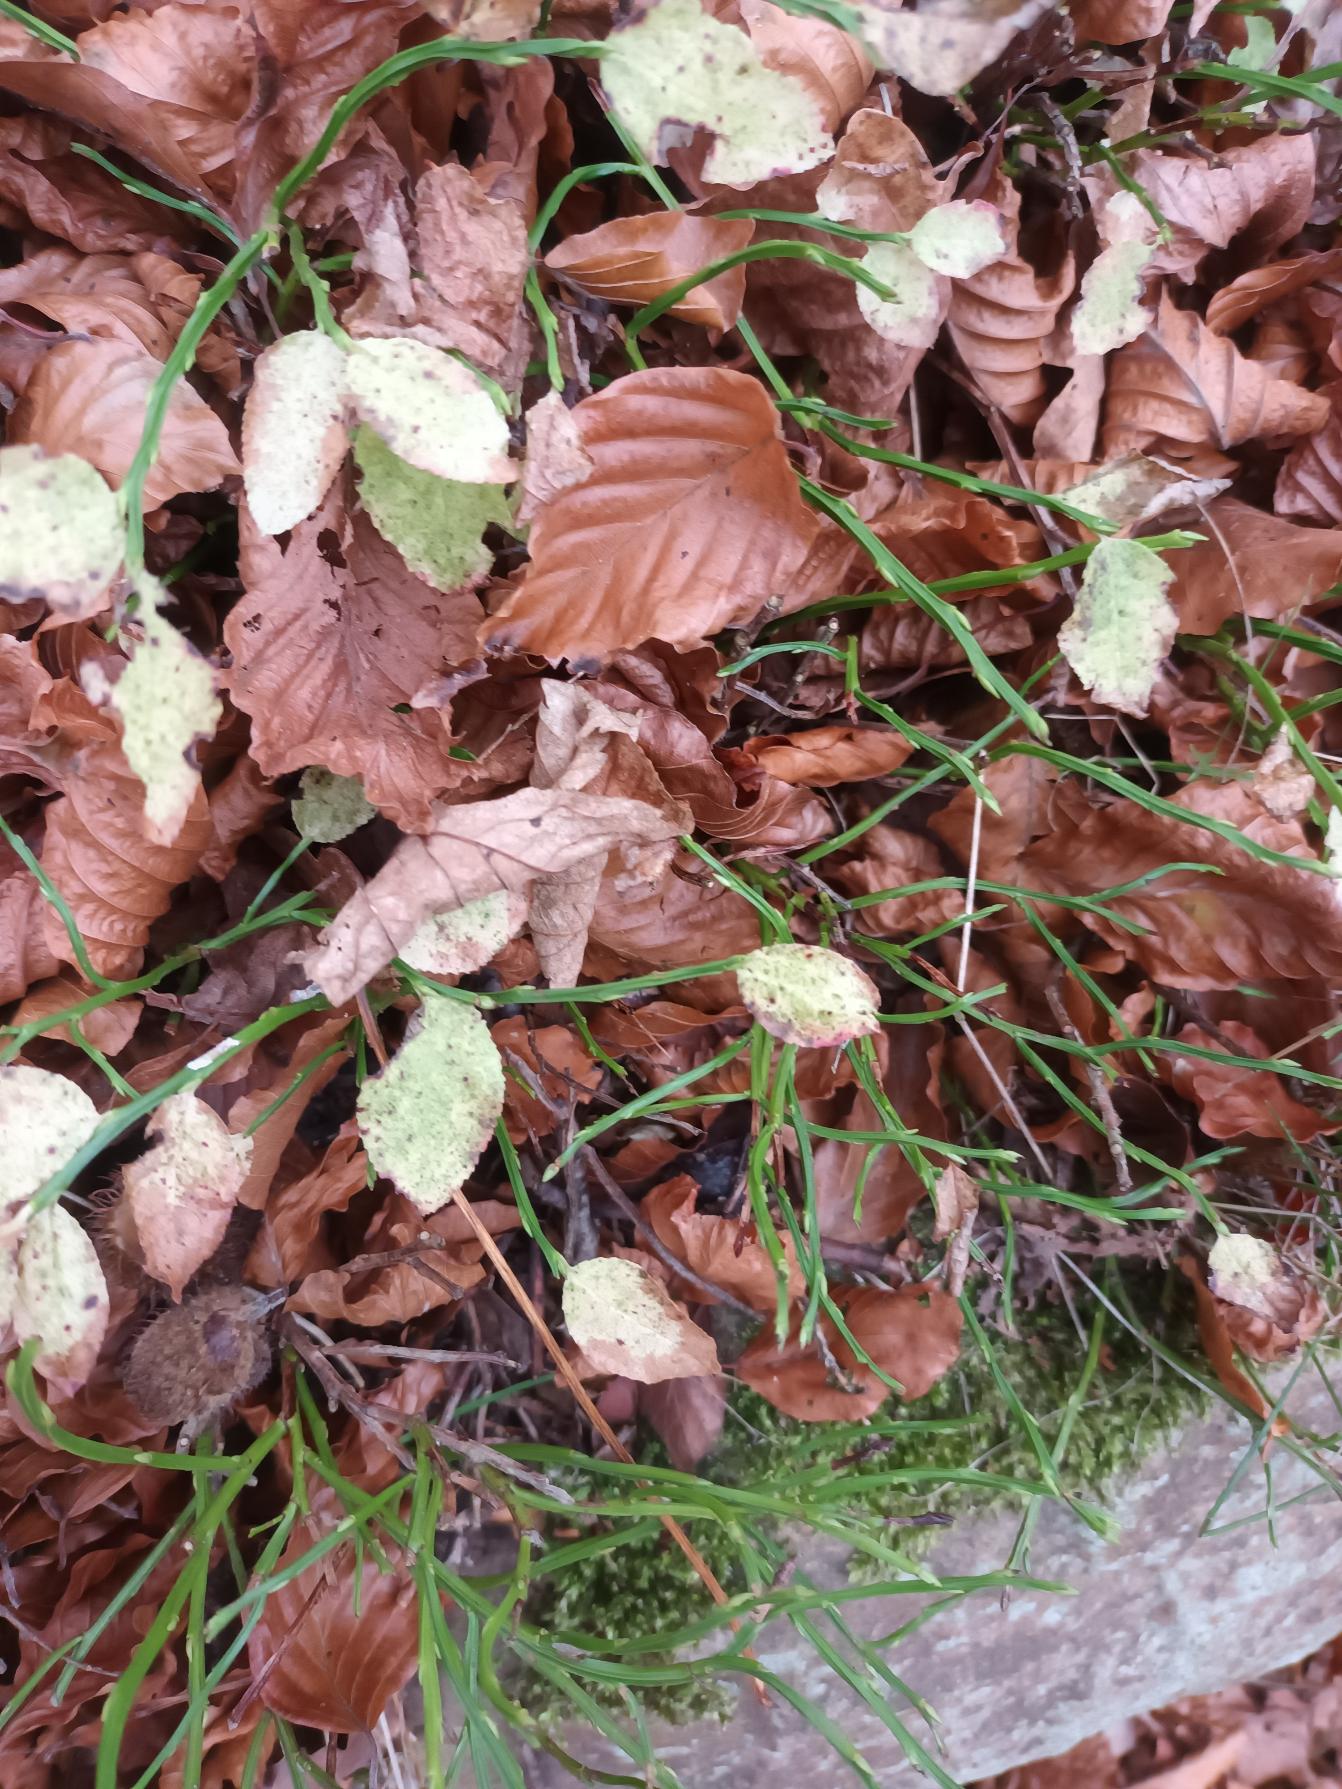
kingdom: Plantae
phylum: Tracheophyta
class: Magnoliopsida
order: Ericales
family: Ericaceae
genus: Vaccinium
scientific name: Vaccinium myrtillus
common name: Blåbær
